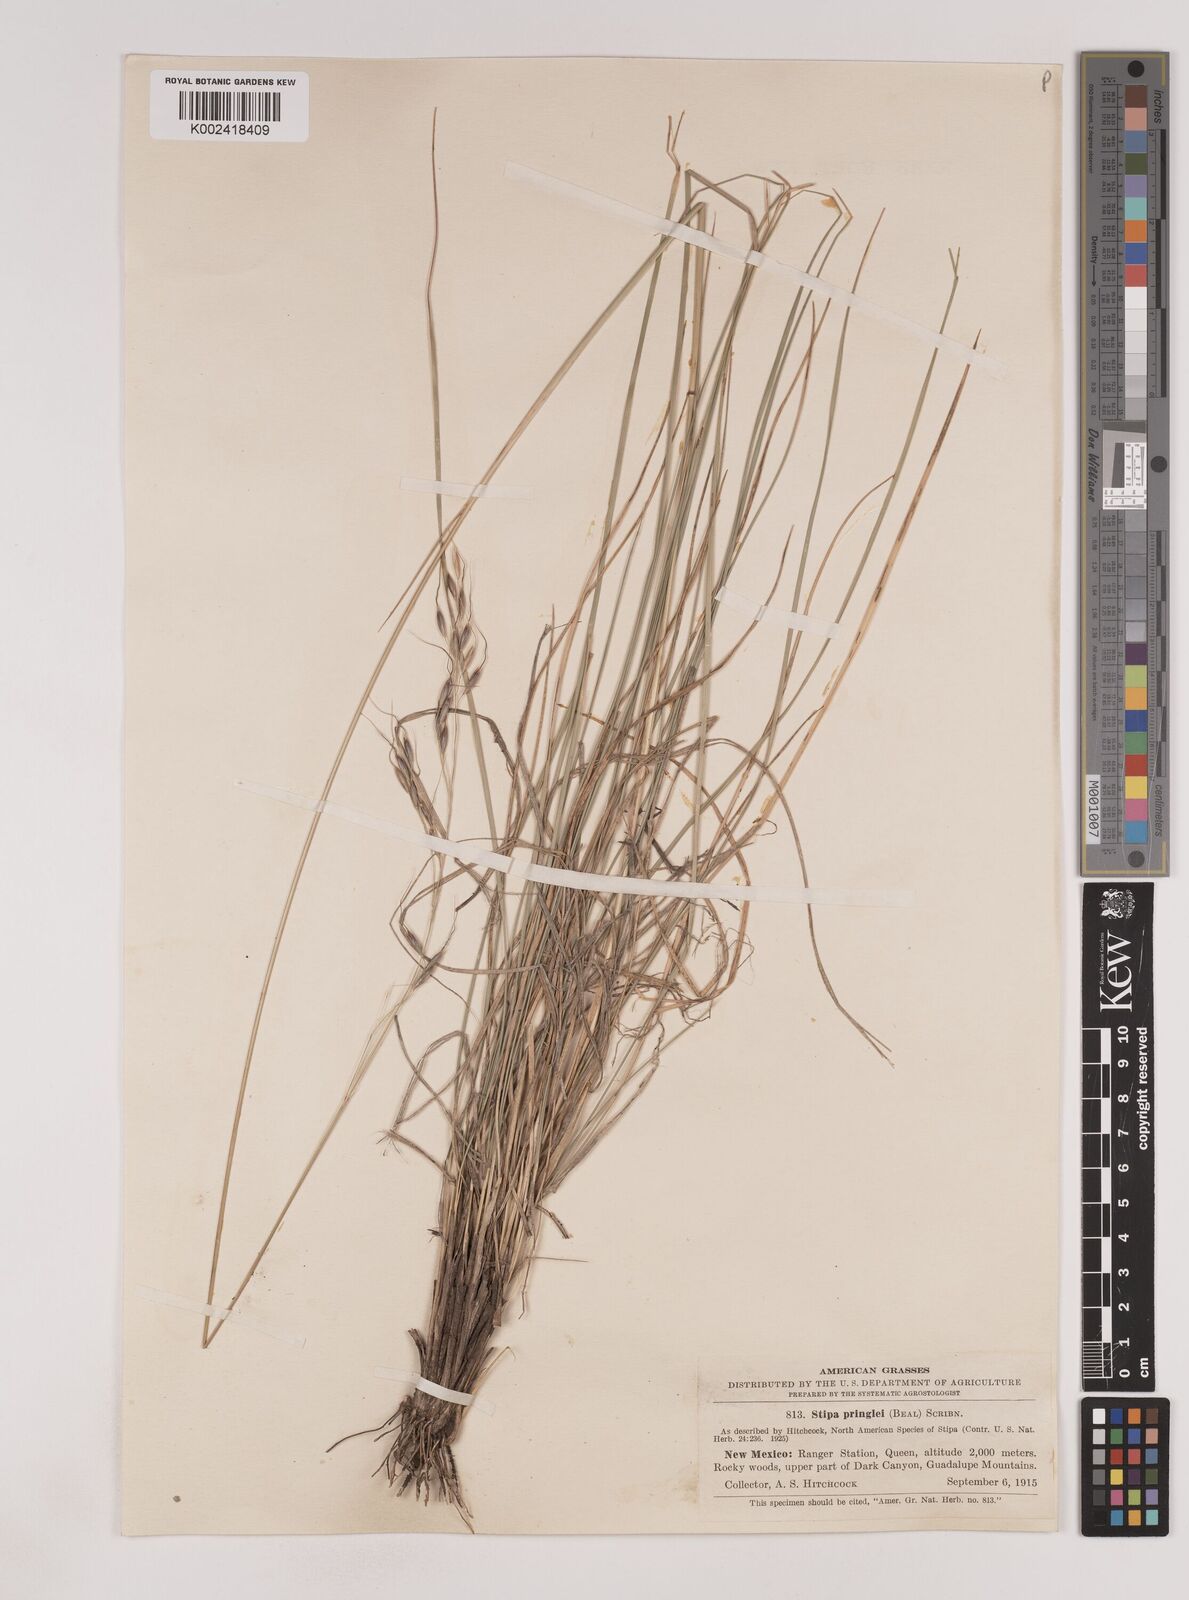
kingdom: Plantae
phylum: Tracheophyta
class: Liliopsida
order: Poales
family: Poaceae
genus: Piptochaetium
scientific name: Piptochaetium pringlei
